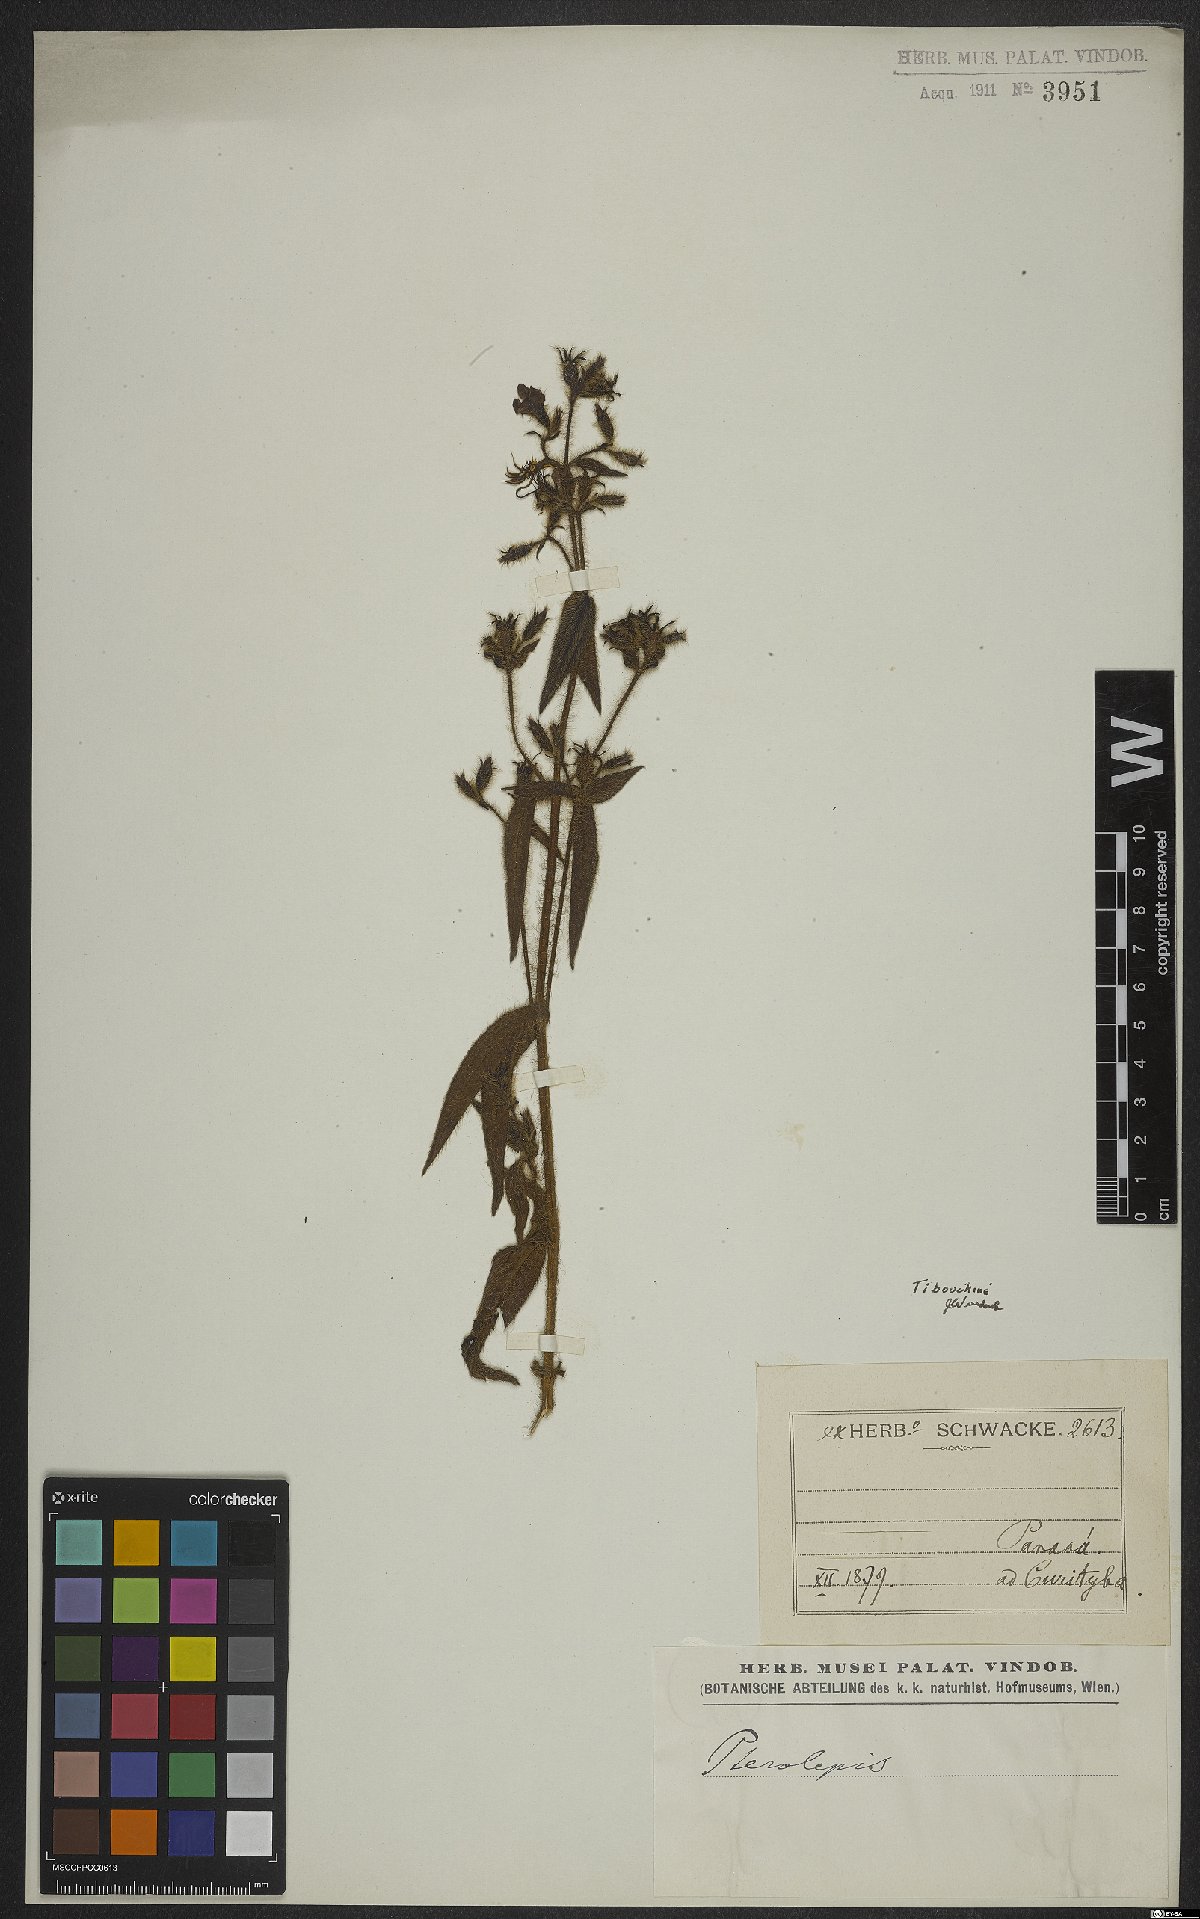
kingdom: Plantae
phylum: Tracheophyta
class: Magnoliopsida
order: Myrtales
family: Melastomataceae
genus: Pleroma
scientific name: Pleroma aemula
